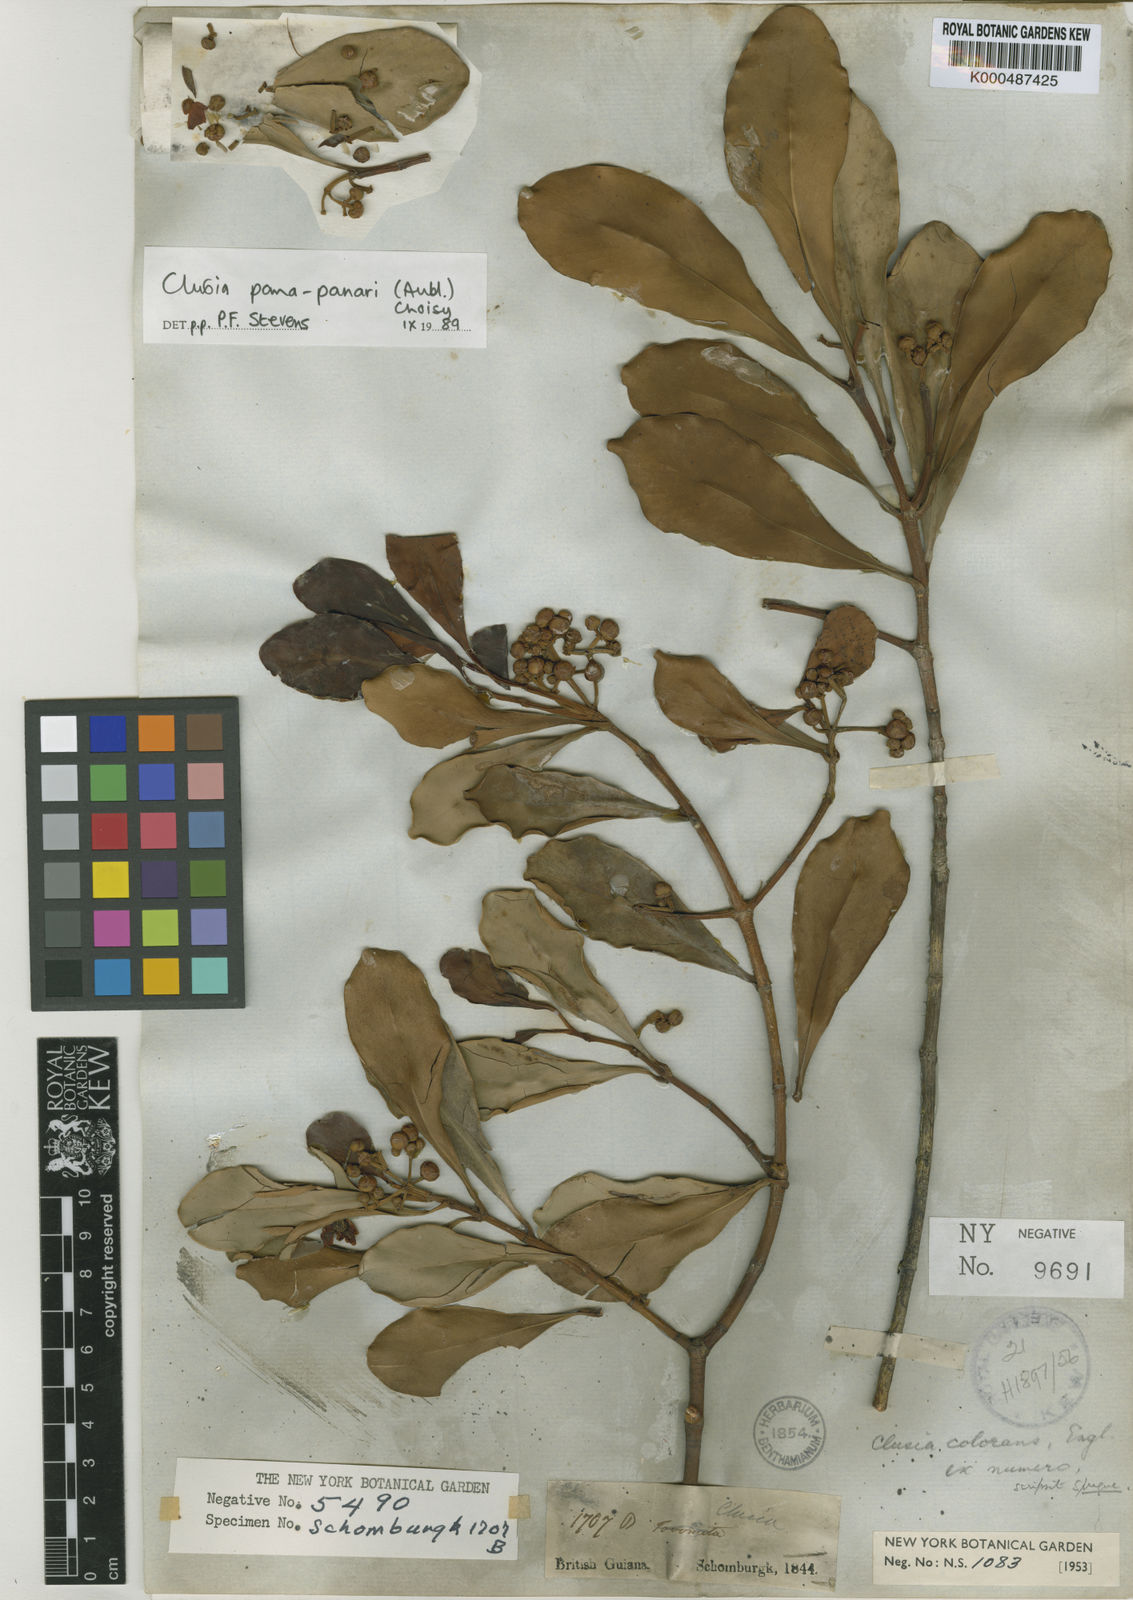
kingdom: Plantae
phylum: Tracheophyta
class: Magnoliopsida
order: Malpighiales
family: Clusiaceae
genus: Clusia
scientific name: Clusia panapanari
